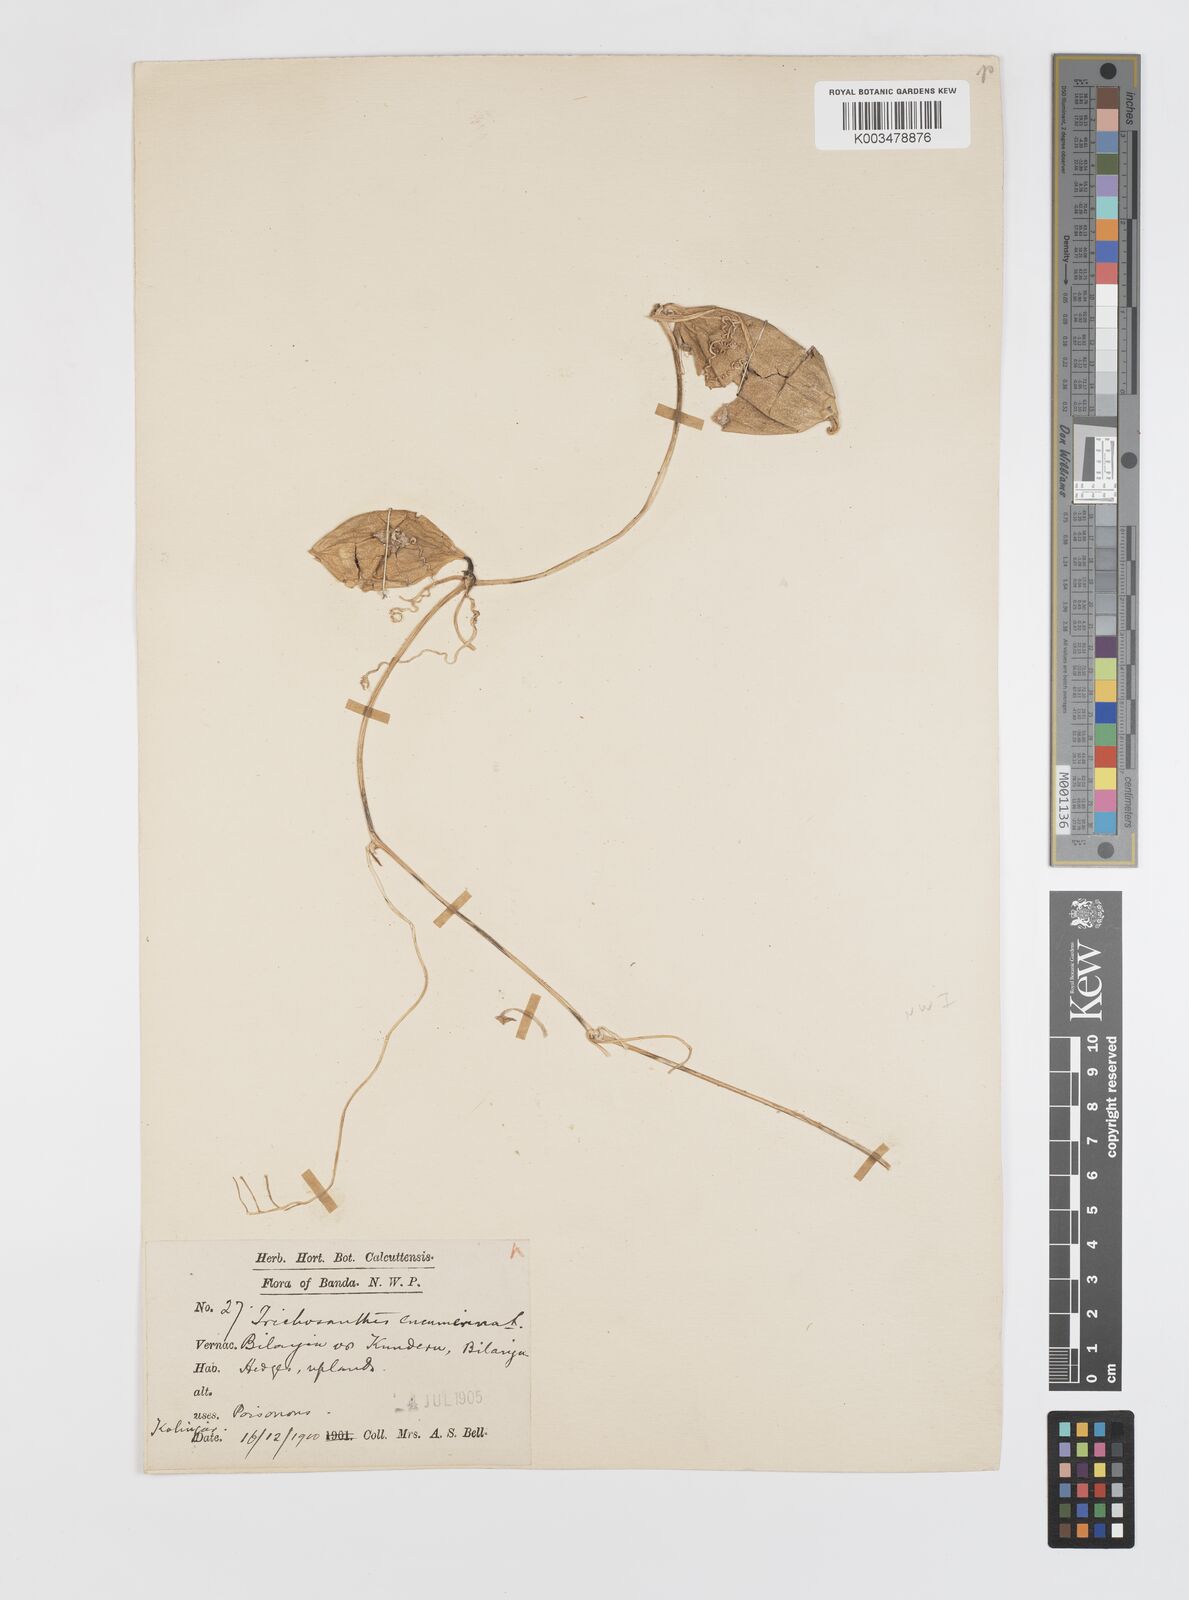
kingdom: Plantae
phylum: Tracheophyta
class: Magnoliopsida
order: Cucurbitales
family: Cucurbitaceae
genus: Trichosanthes
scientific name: Trichosanthes cucumerina
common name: Snakegourd
